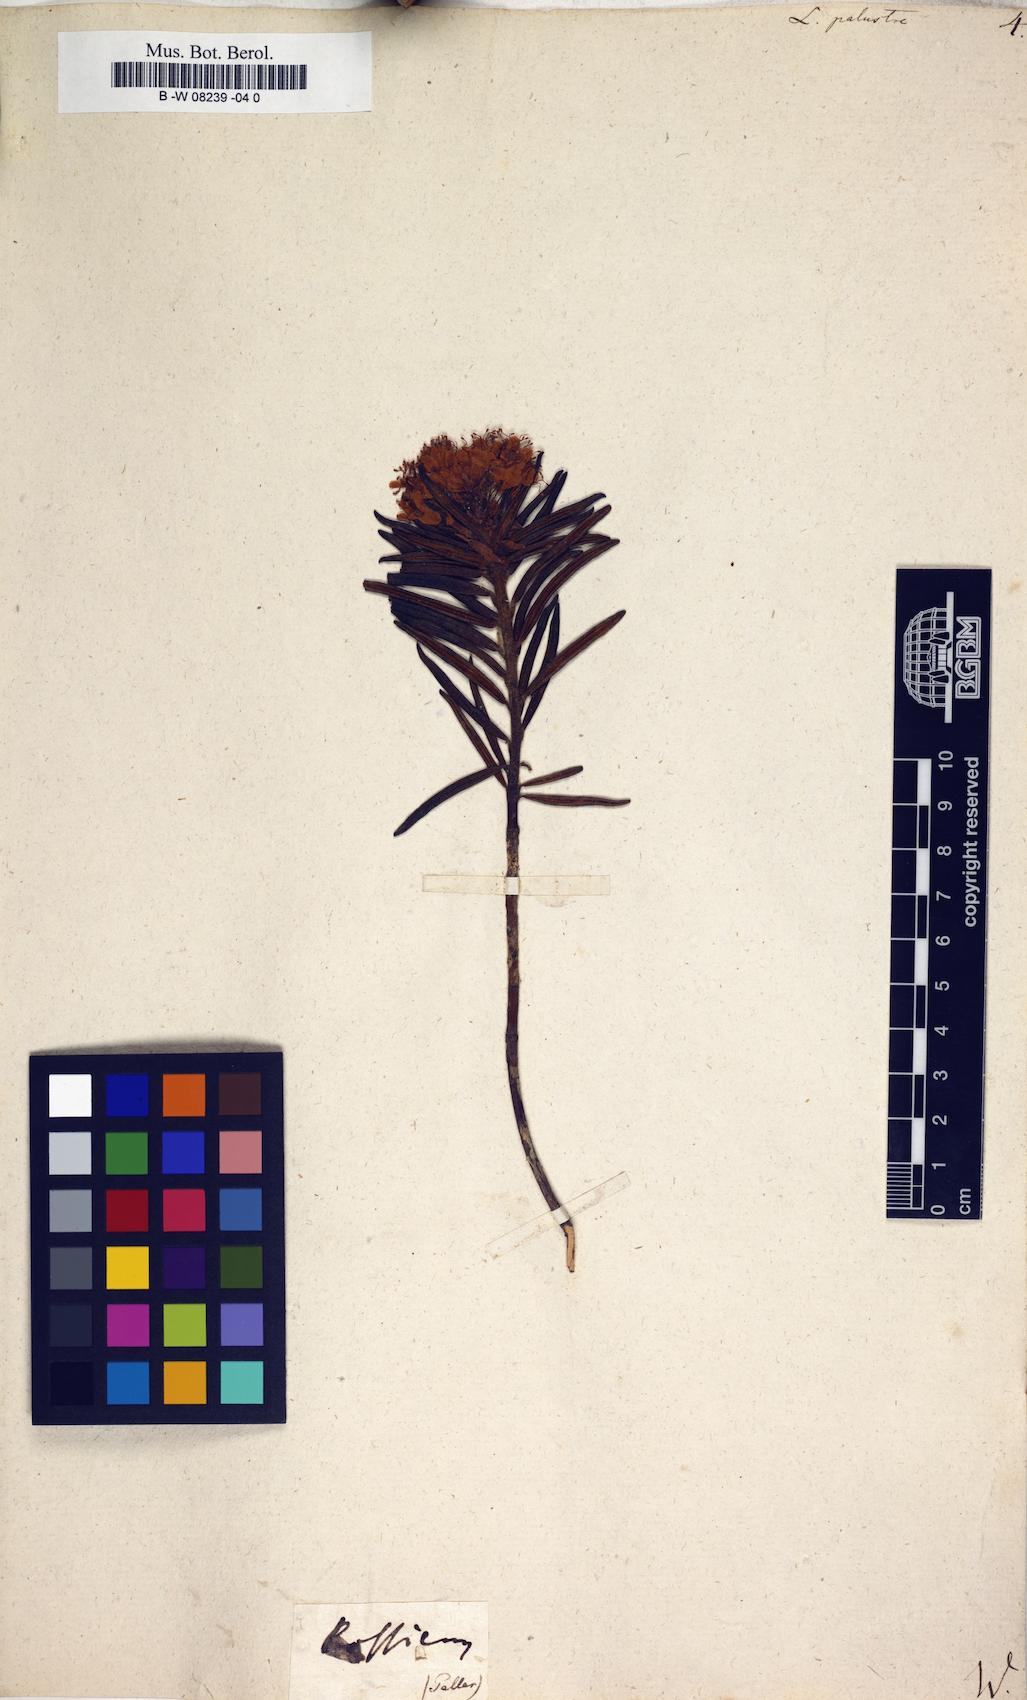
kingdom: Plantae
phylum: Tracheophyta
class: Magnoliopsida
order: Ericales
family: Ericaceae
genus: Rhododendron
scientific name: Rhododendron tomentosum
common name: Marsh labrador tea
